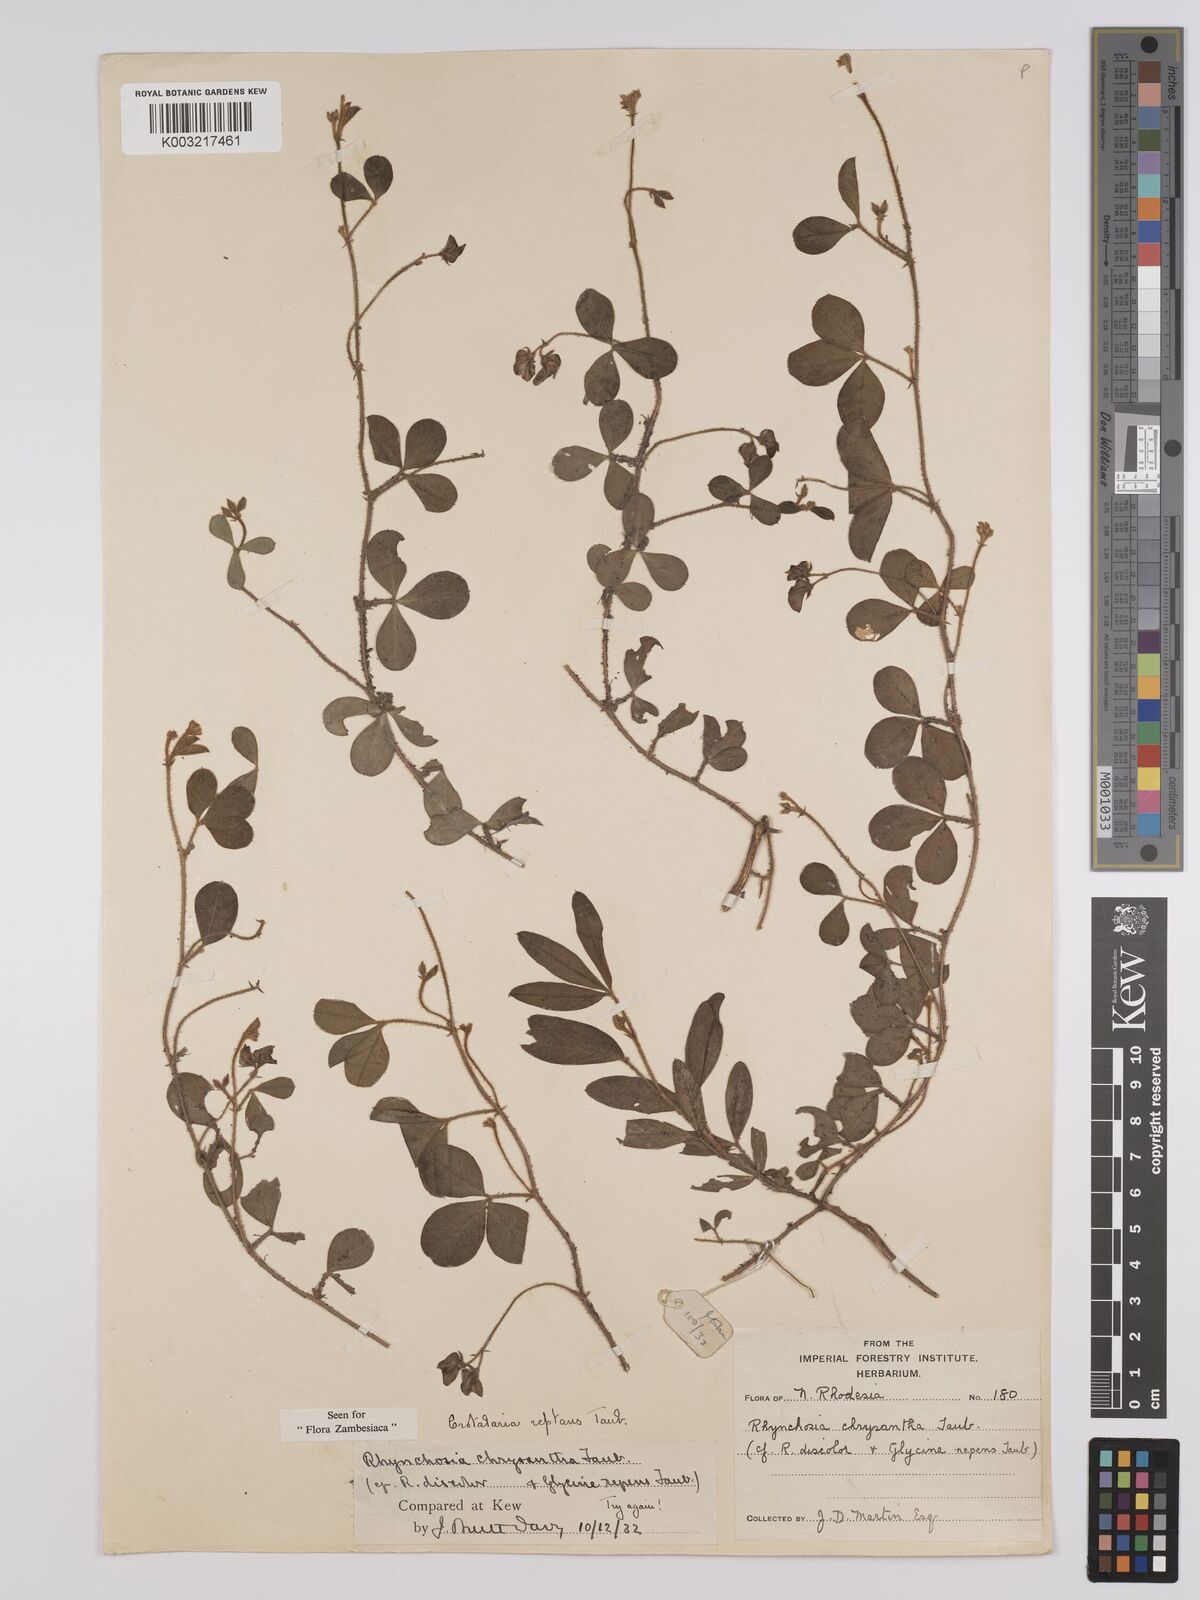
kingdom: Plantae
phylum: Tracheophyta
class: Magnoliopsida
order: Fabales
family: Fabaceae
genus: Crotalaria
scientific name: Crotalaria reptans
